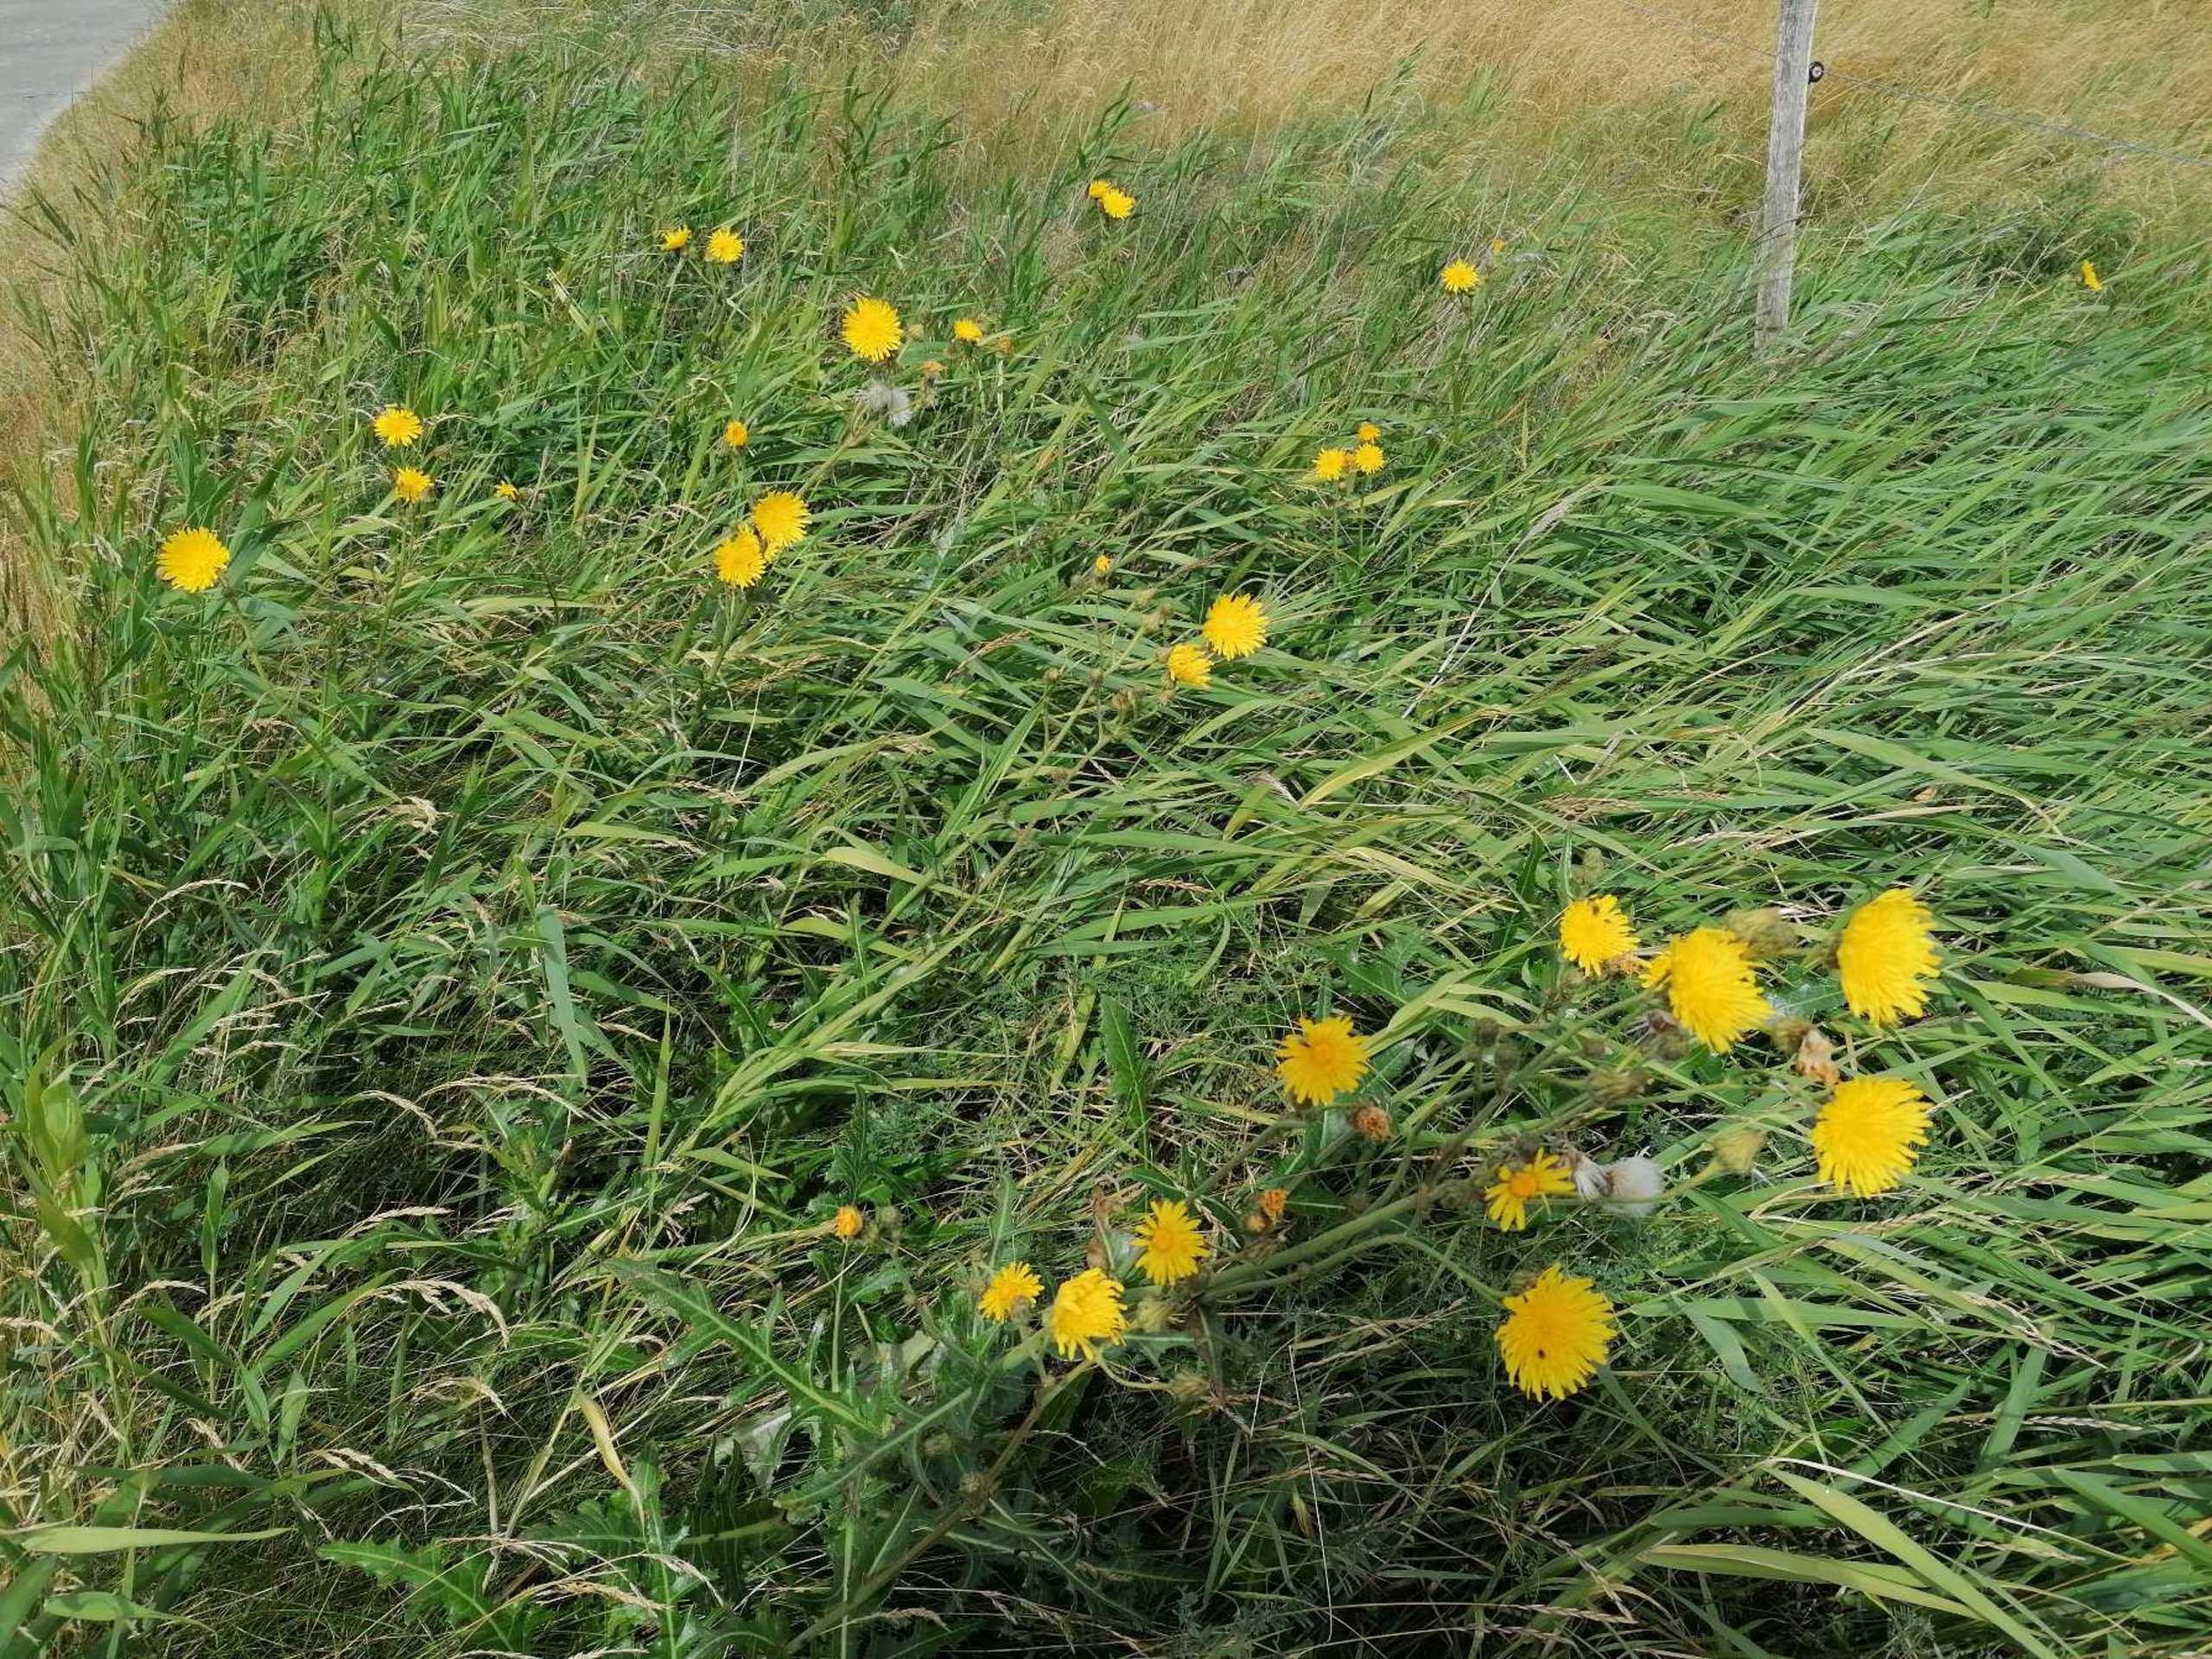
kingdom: Plantae
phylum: Tracheophyta
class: Magnoliopsida
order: Asterales
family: Asteraceae
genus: Sonchus
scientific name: Sonchus arvensis
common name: Ager-svinemælk
